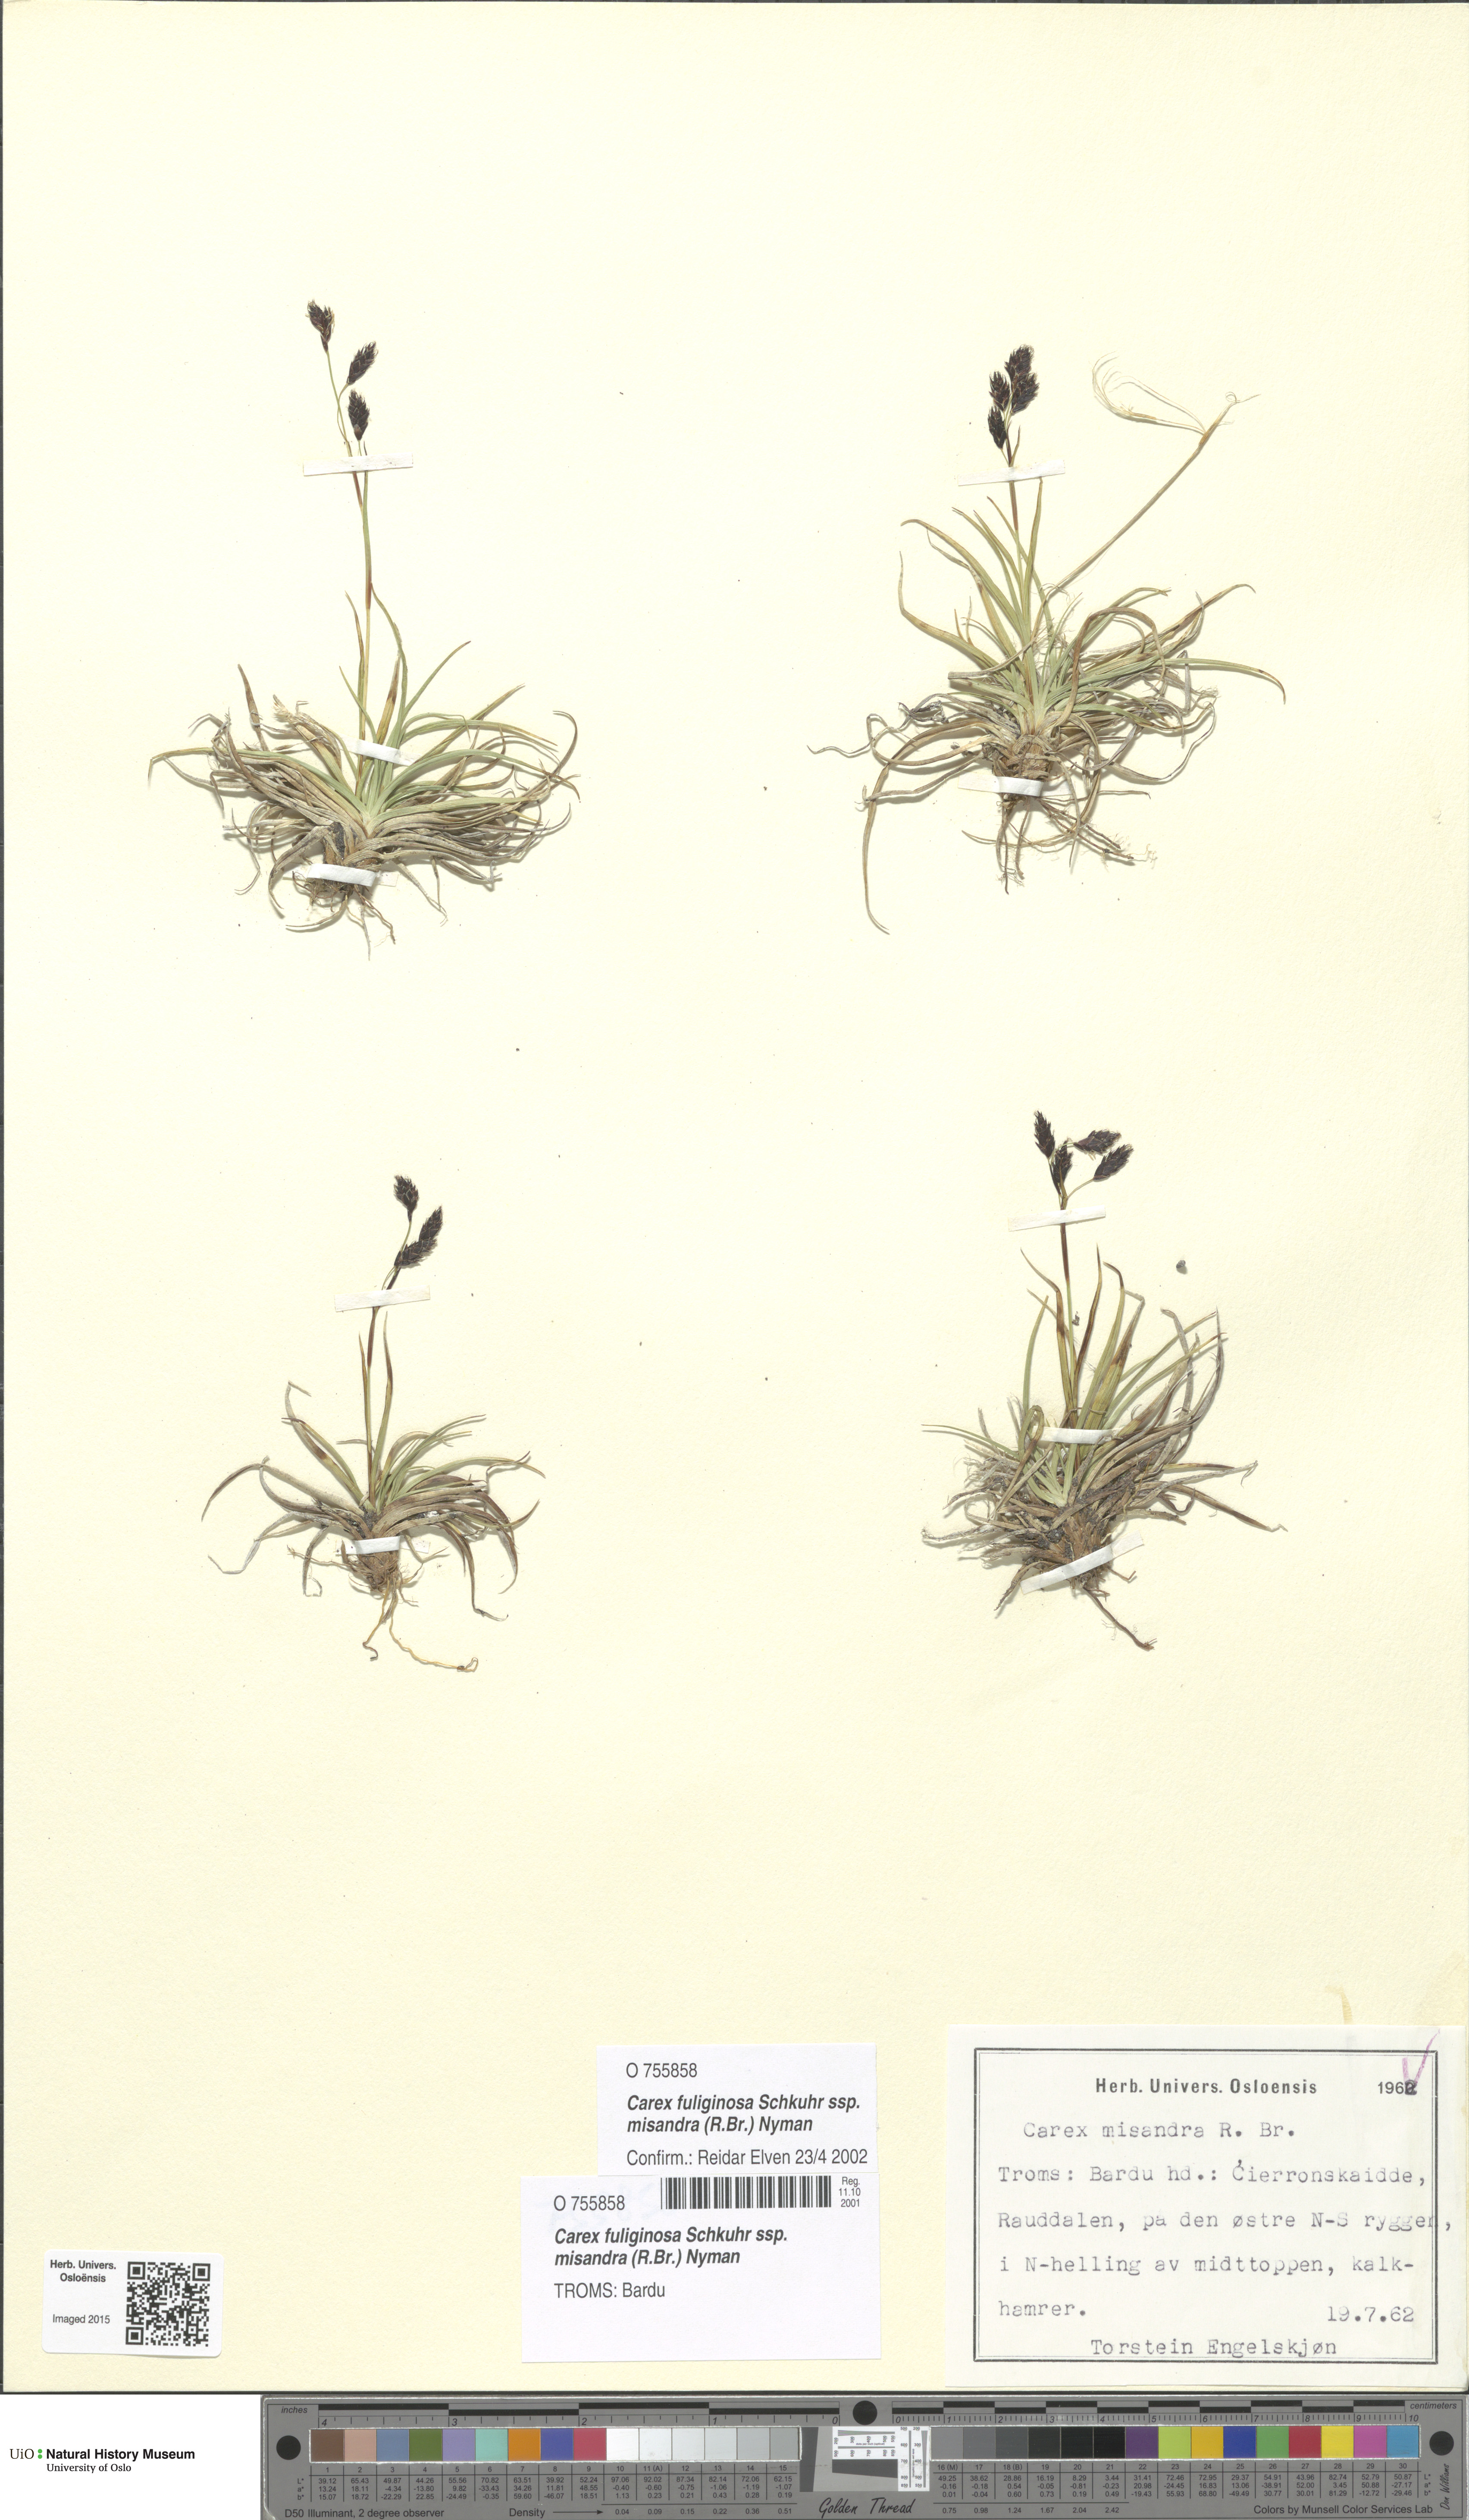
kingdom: Plantae
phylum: Tracheophyta
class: Liliopsida
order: Poales
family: Cyperaceae
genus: Carex
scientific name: Carex fuliginosa
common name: Few-flowered sedge
